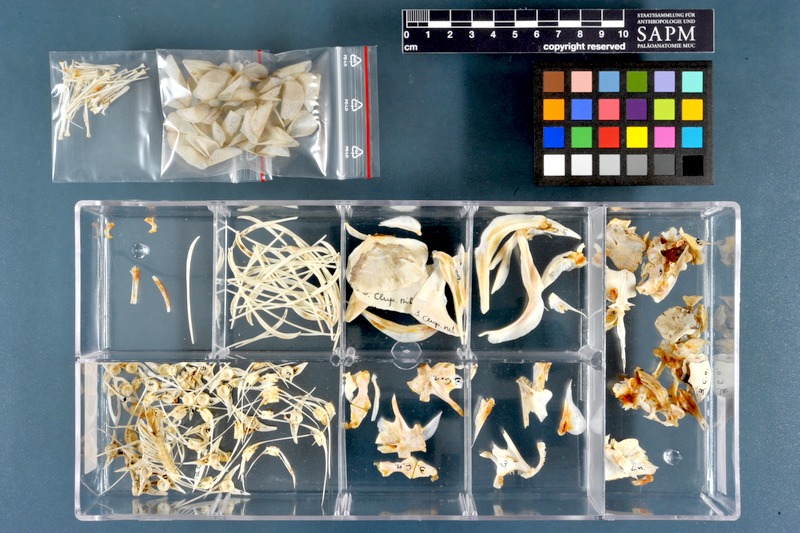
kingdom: Animalia
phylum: Chordata
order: Osteoglossiformes
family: Arapaimidae
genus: Heterotis
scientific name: Heterotis niloticus
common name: African bonytongue
